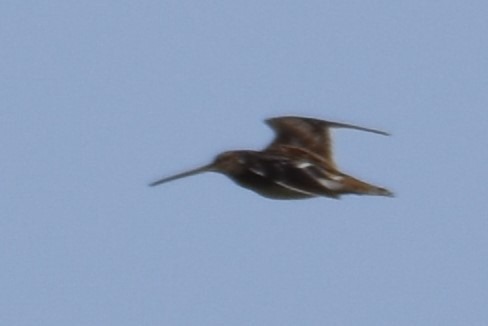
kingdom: Animalia
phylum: Chordata
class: Aves
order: Charadriiformes
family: Scolopacidae
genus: Gallinago
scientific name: Gallinago gallinago
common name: Dobbeltbekkasin
